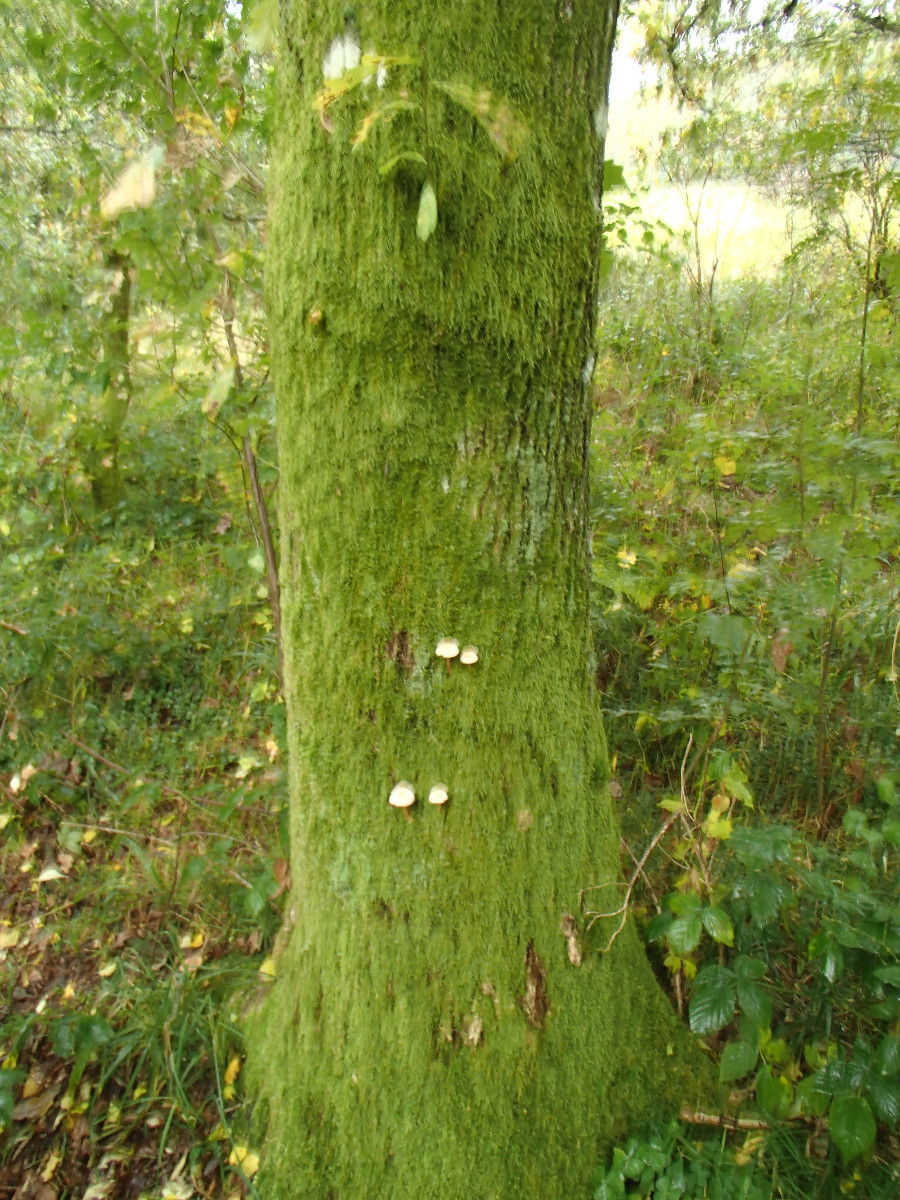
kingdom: Fungi
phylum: Basidiomycota
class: Agaricomycetes
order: Agaricales
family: Omphalotaceae
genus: Gymnopus
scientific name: Gymnopus
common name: fladhat
